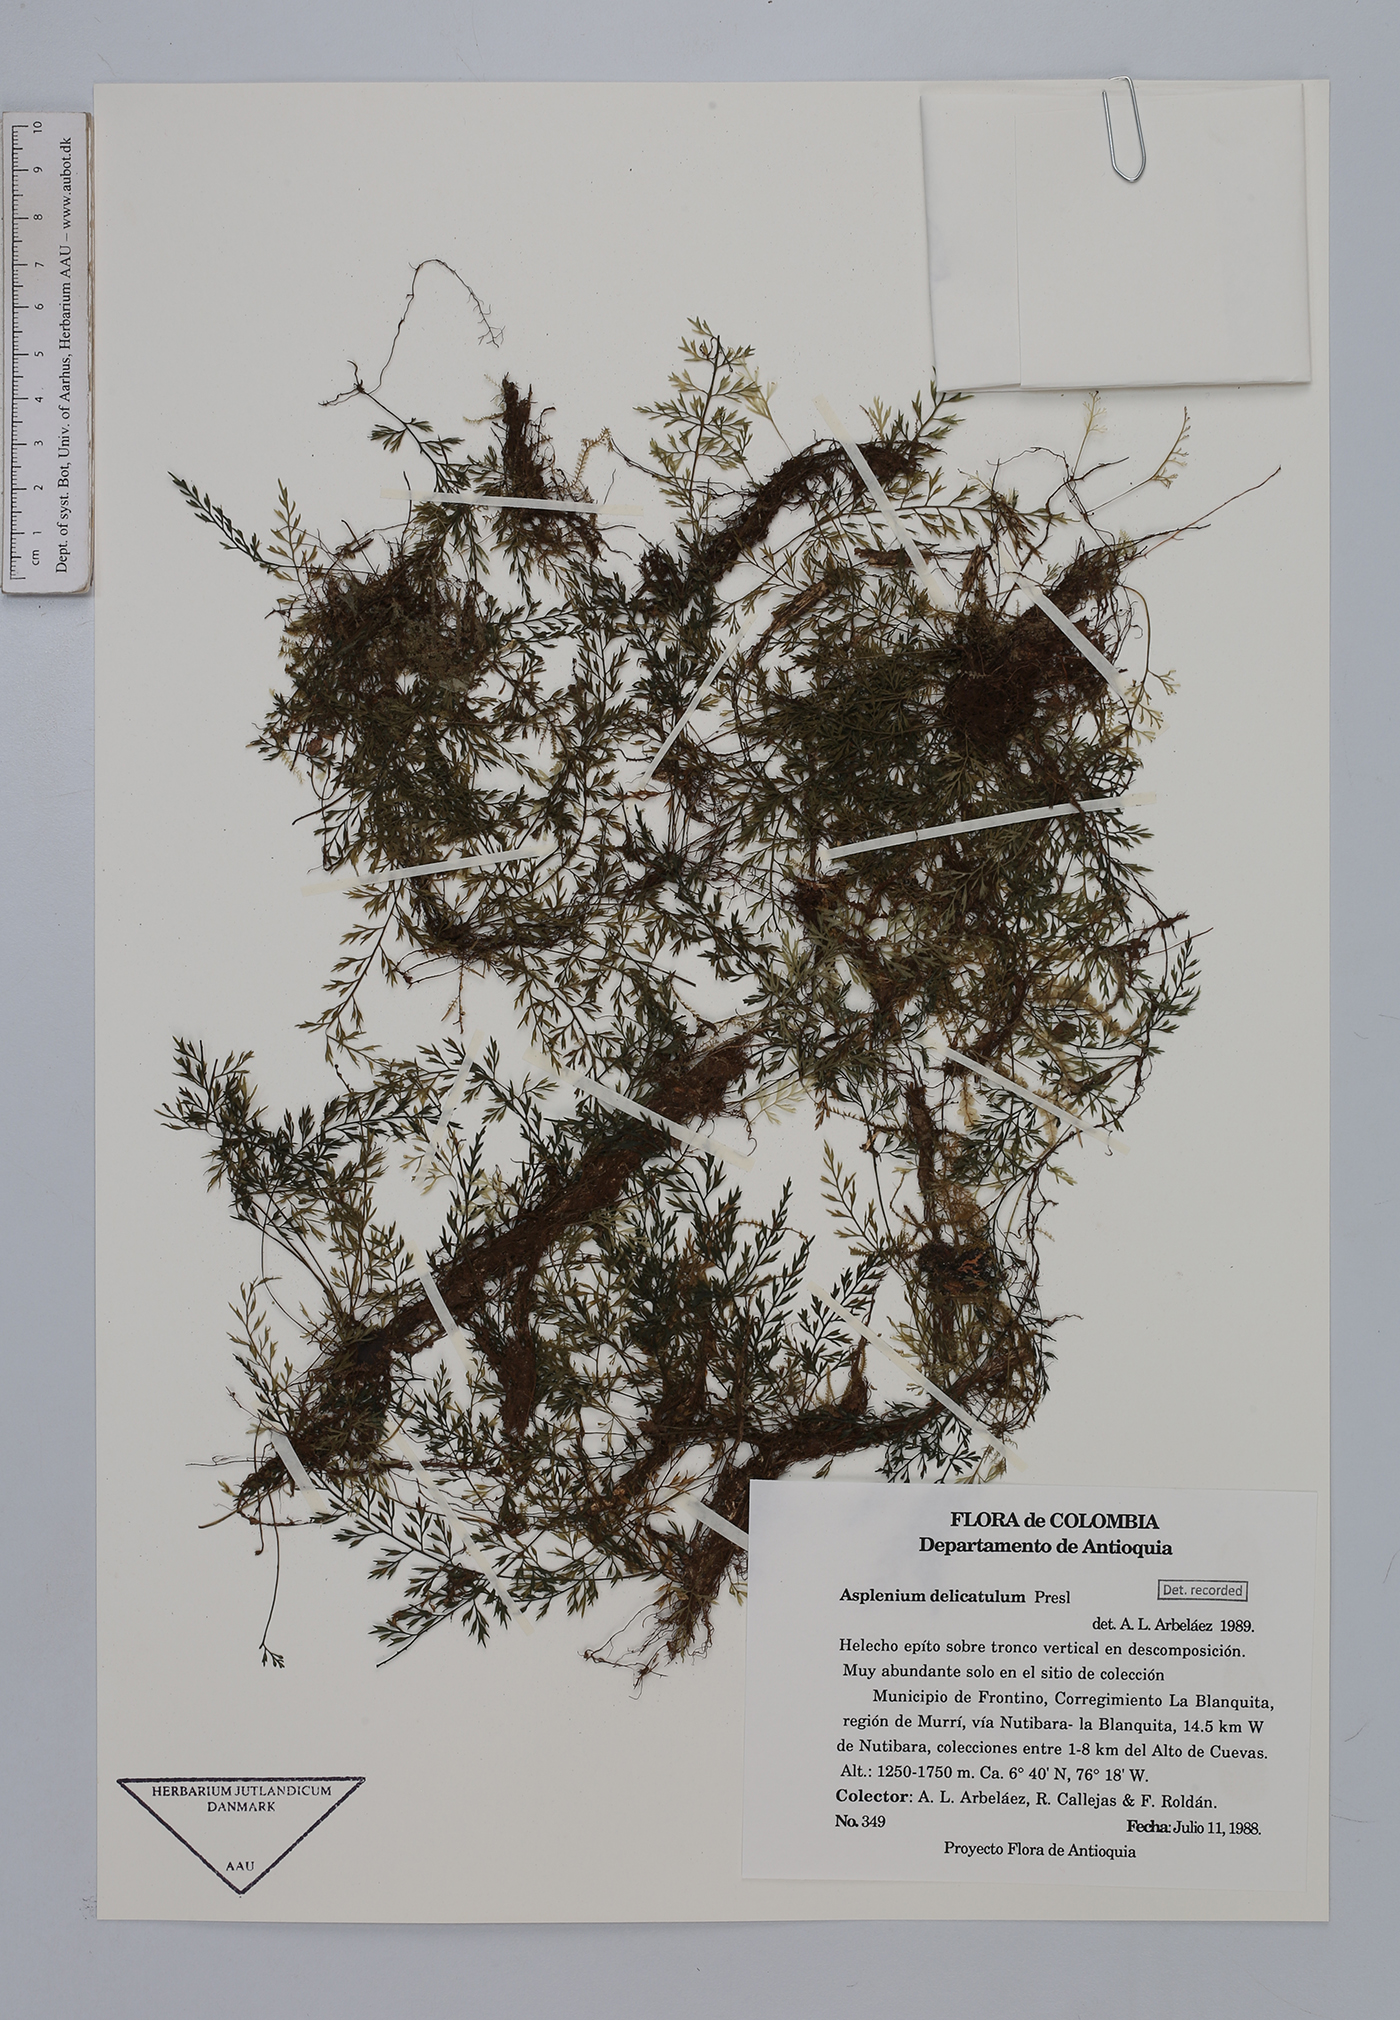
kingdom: Plantae
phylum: Tracheophyta
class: Polypodiopsida
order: Polypodiales
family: Aspleniaceae
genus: Asplenium
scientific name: Asplenium delicatulum
